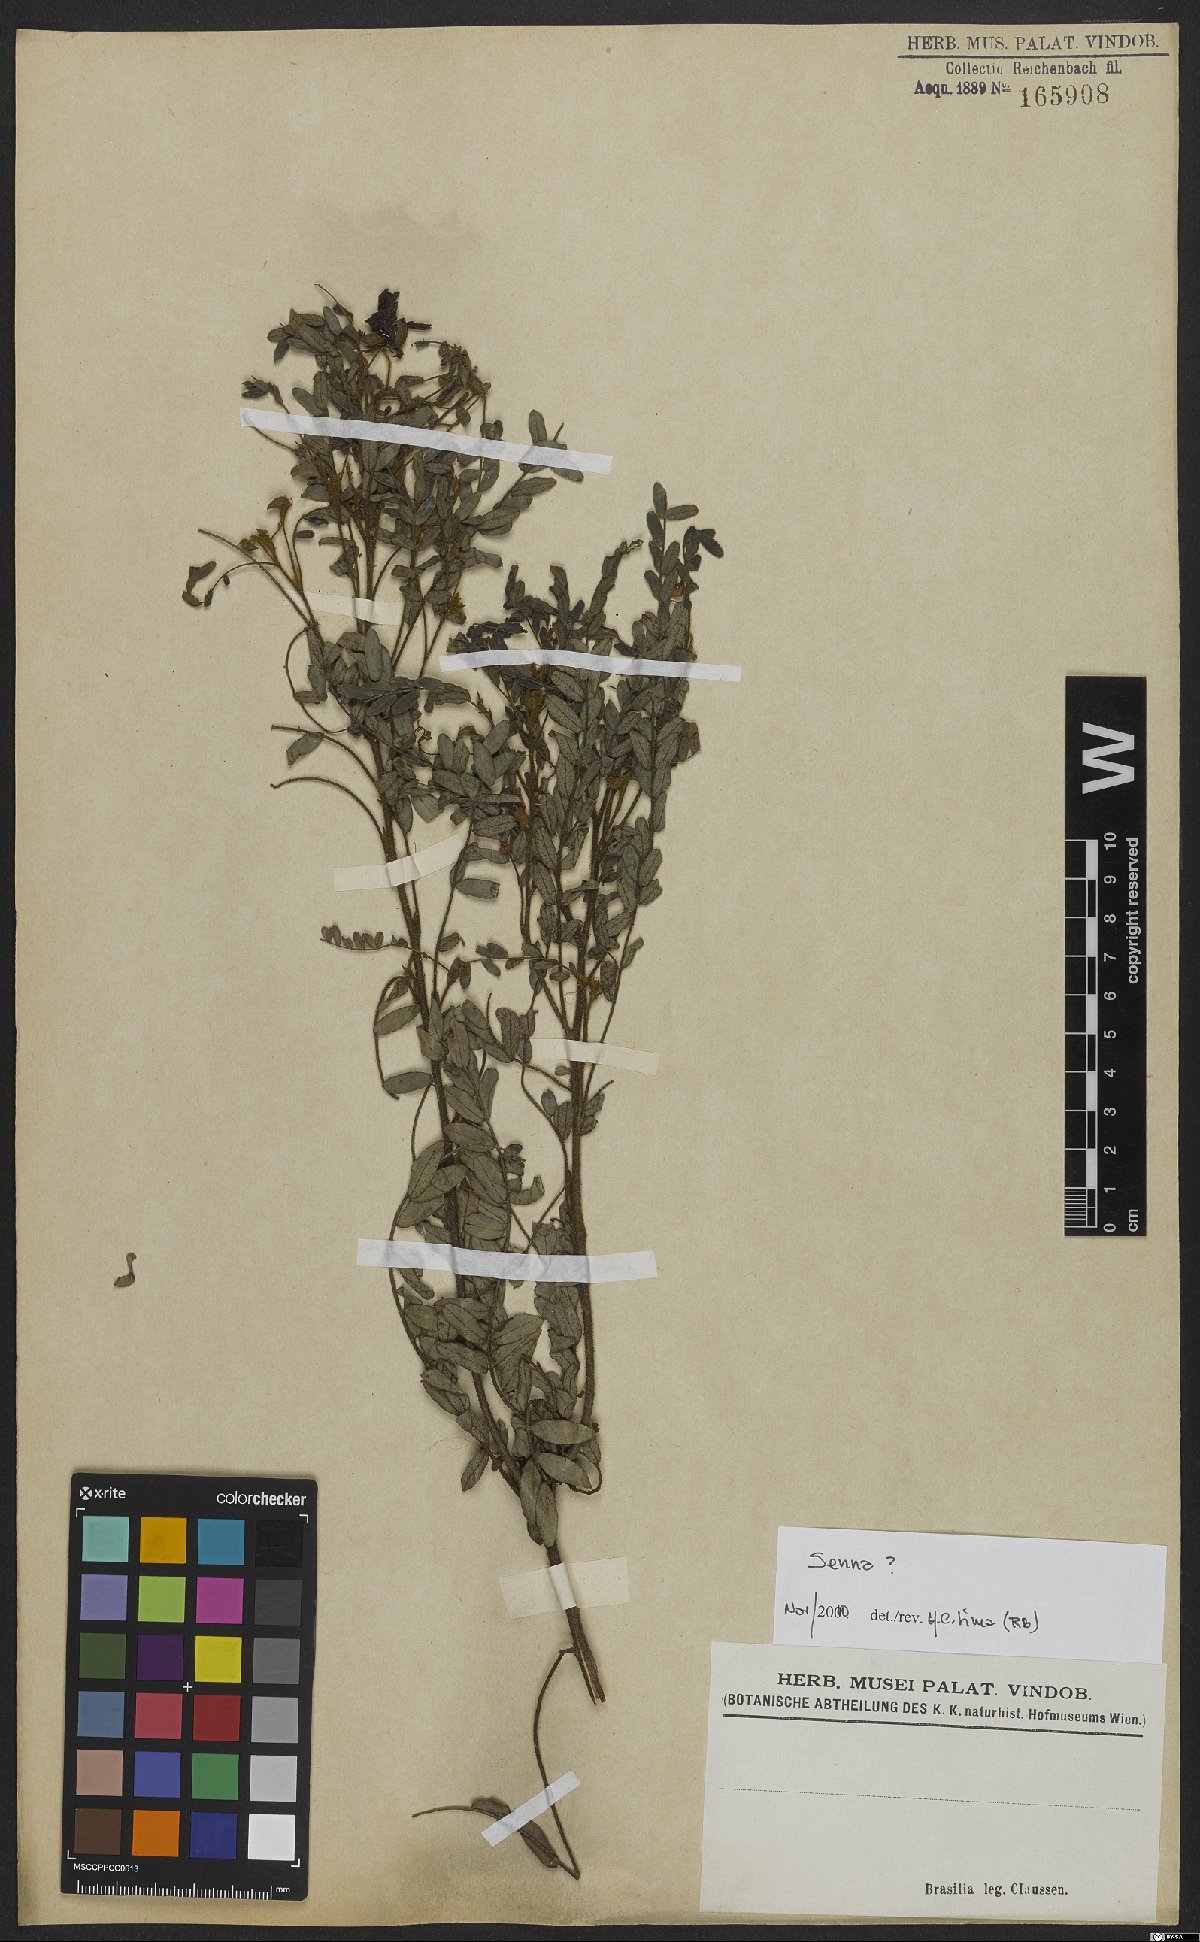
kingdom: Plantae
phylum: Tracheophyta
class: Magnoliopsida
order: Fabales
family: Fabaceae
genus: Senna
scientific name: Senna
